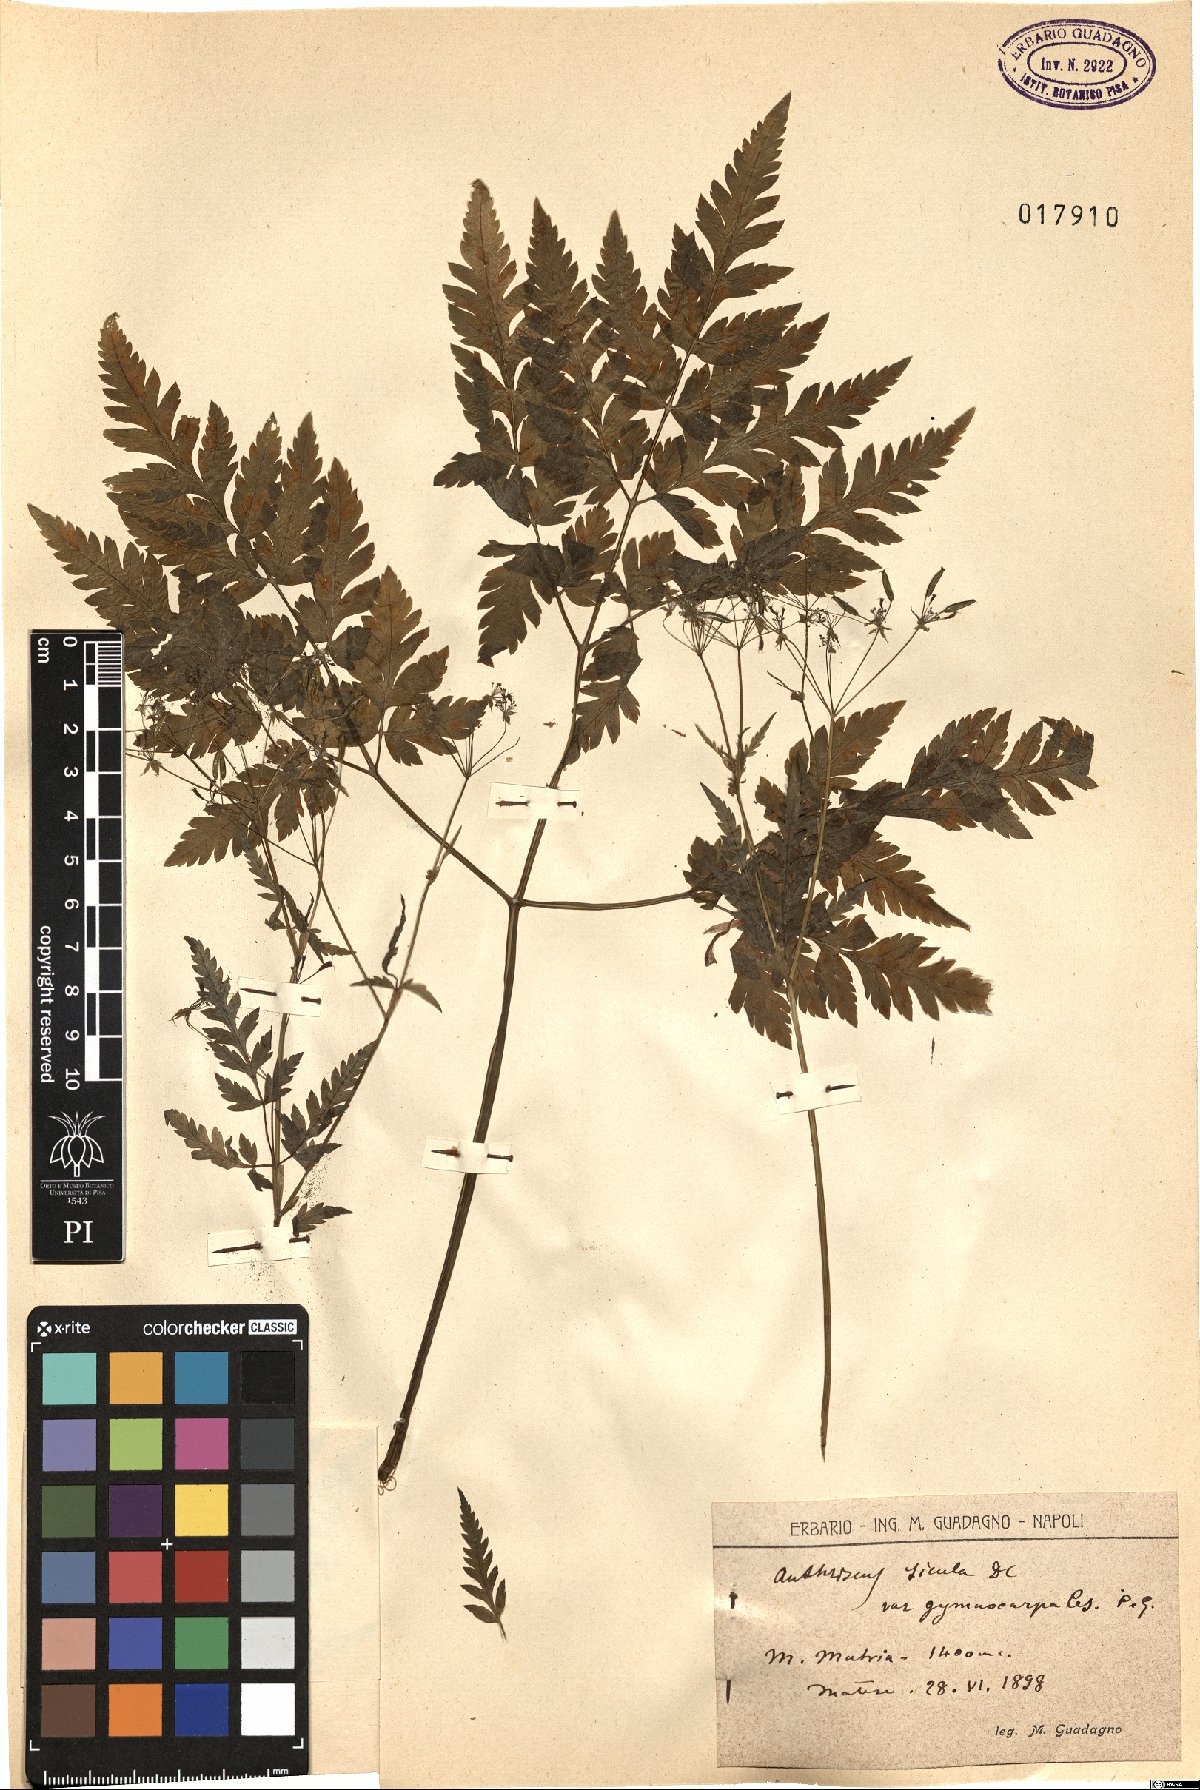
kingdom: Plantae
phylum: Tracheophyta
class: Magnoliopsida
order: Apiales
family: Apiaceae
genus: Anthriscus
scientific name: Anthriscus sicula
